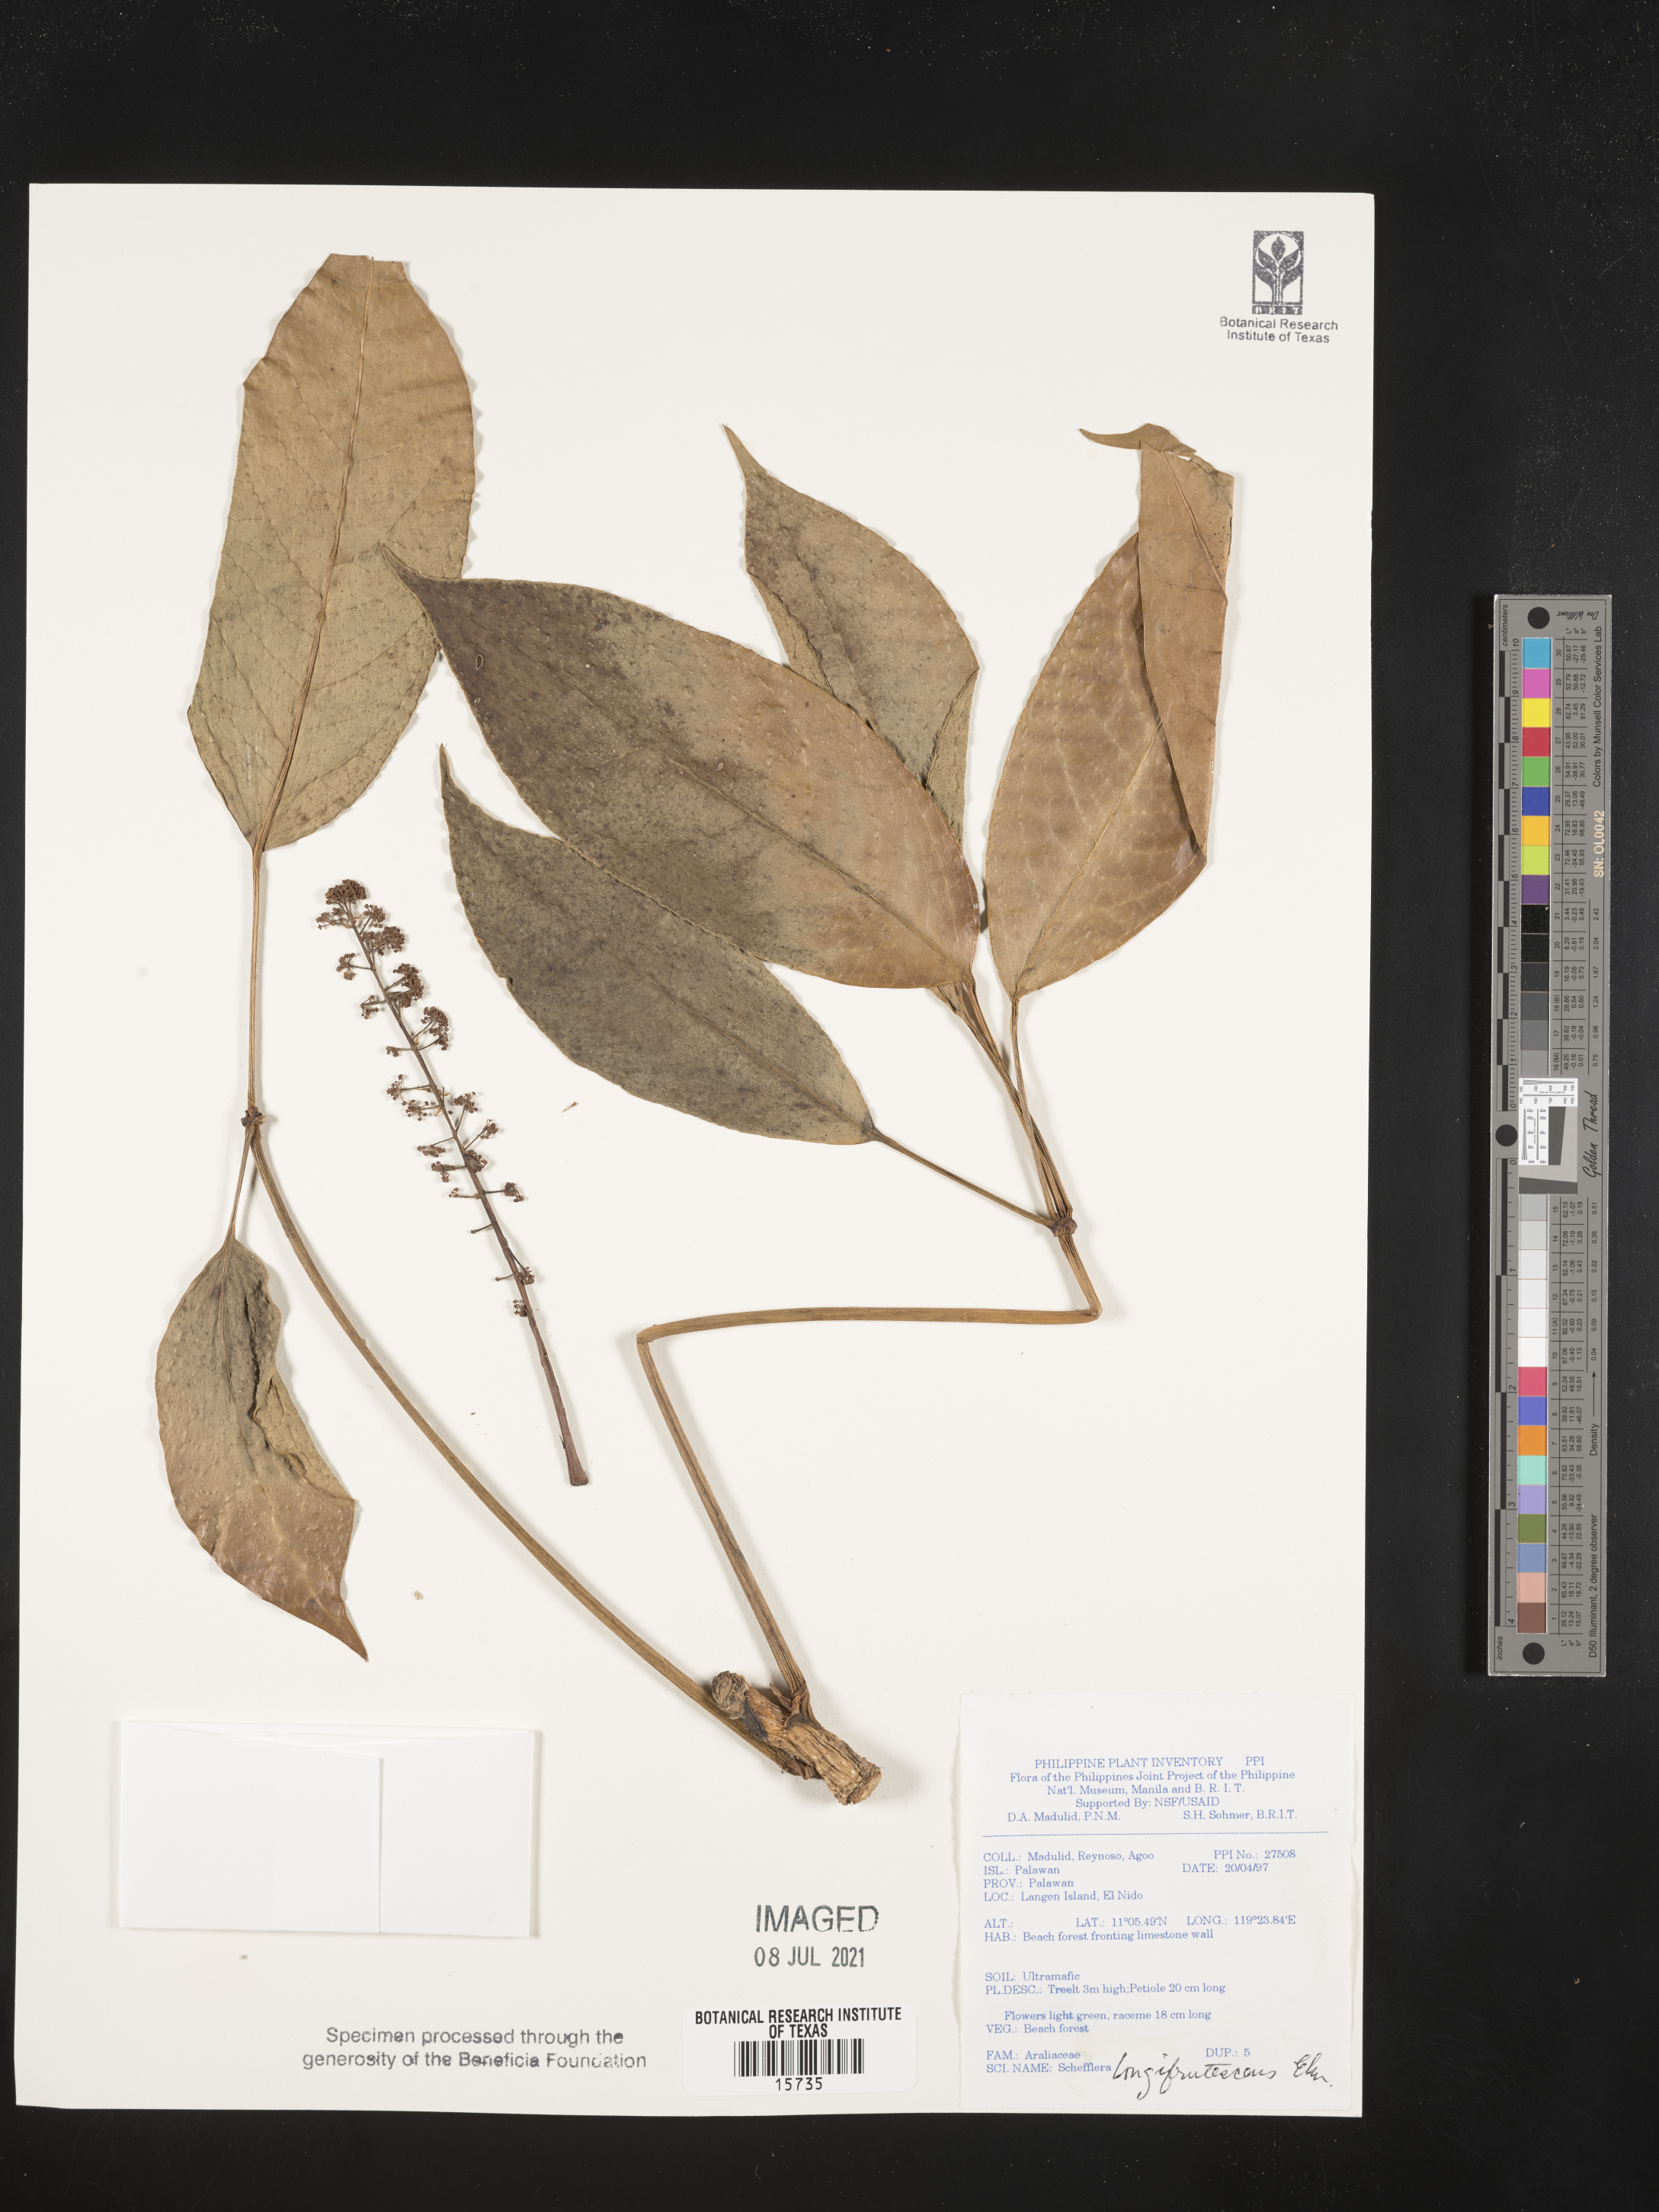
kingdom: Plantae
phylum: Tracheophyta
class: Magnoliopsida
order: Apiales
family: Araliaceae
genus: Heptapleurum
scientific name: Heptapleurum longifrutescens
